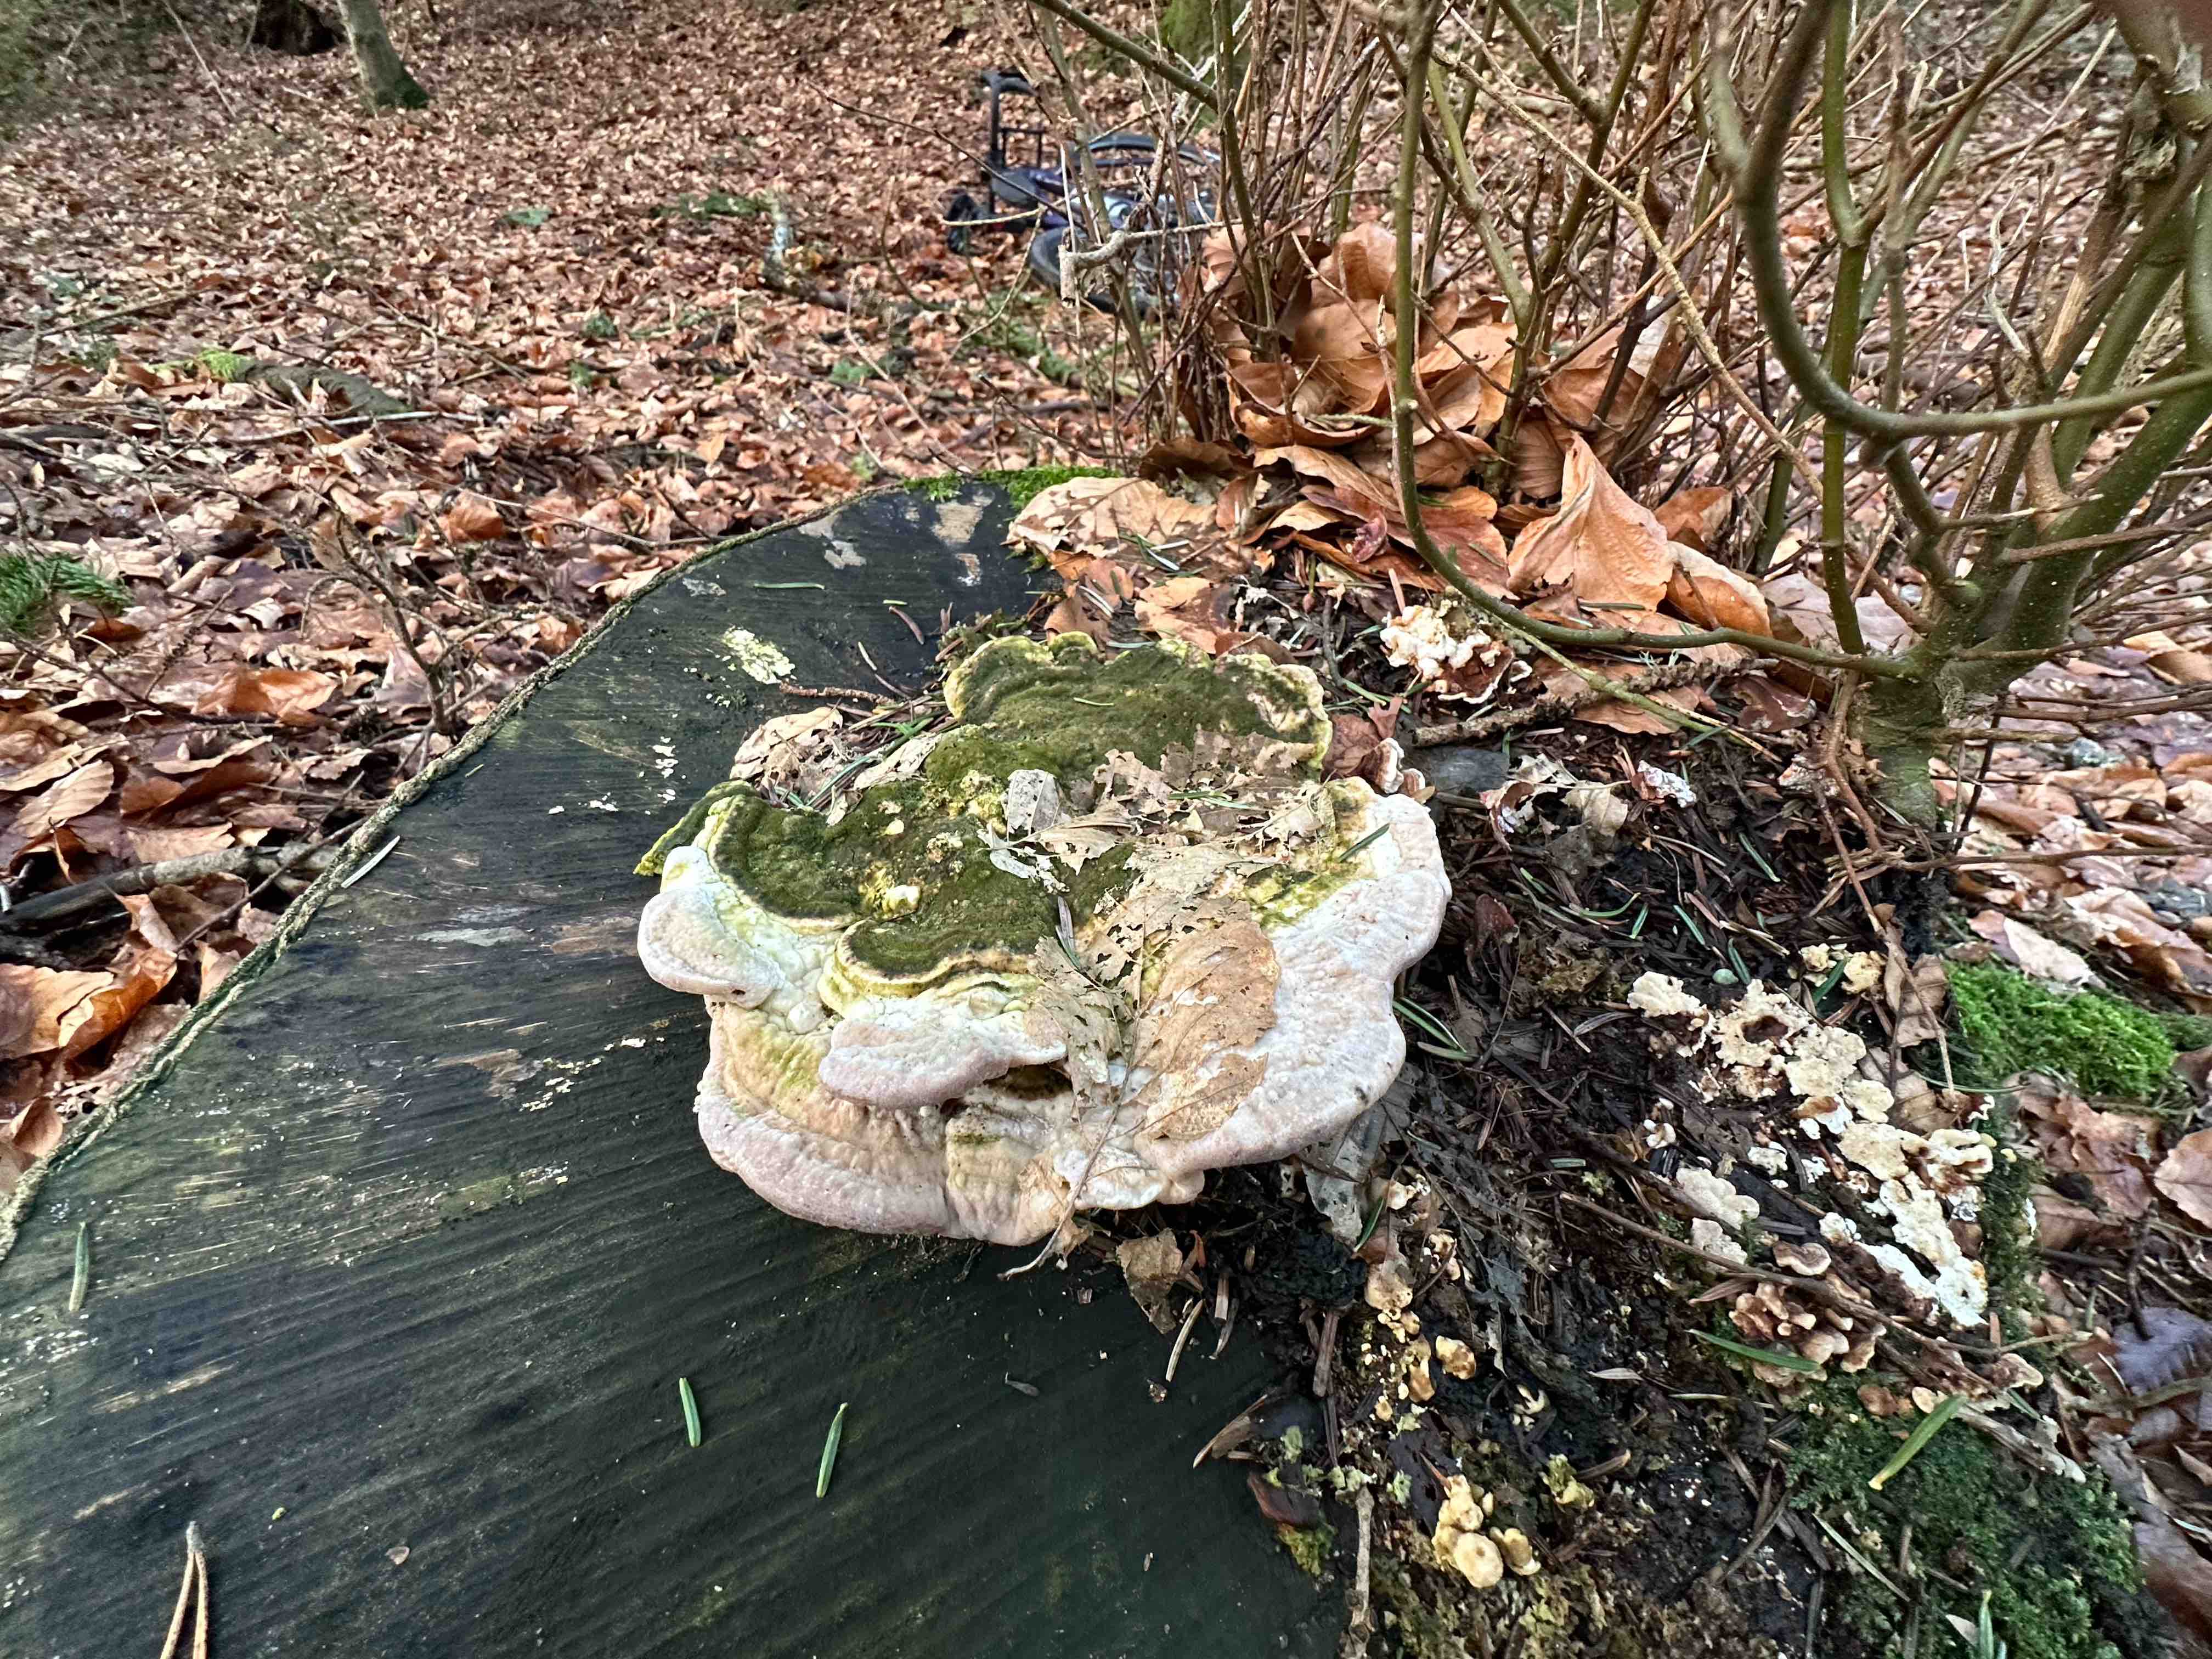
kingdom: Fungi
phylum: Basidiomycota
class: Agaricomycetes
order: Polyporales
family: Polyporaceae
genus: Trametes
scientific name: Trametes gibbosa
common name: puklet læderporesvamp
